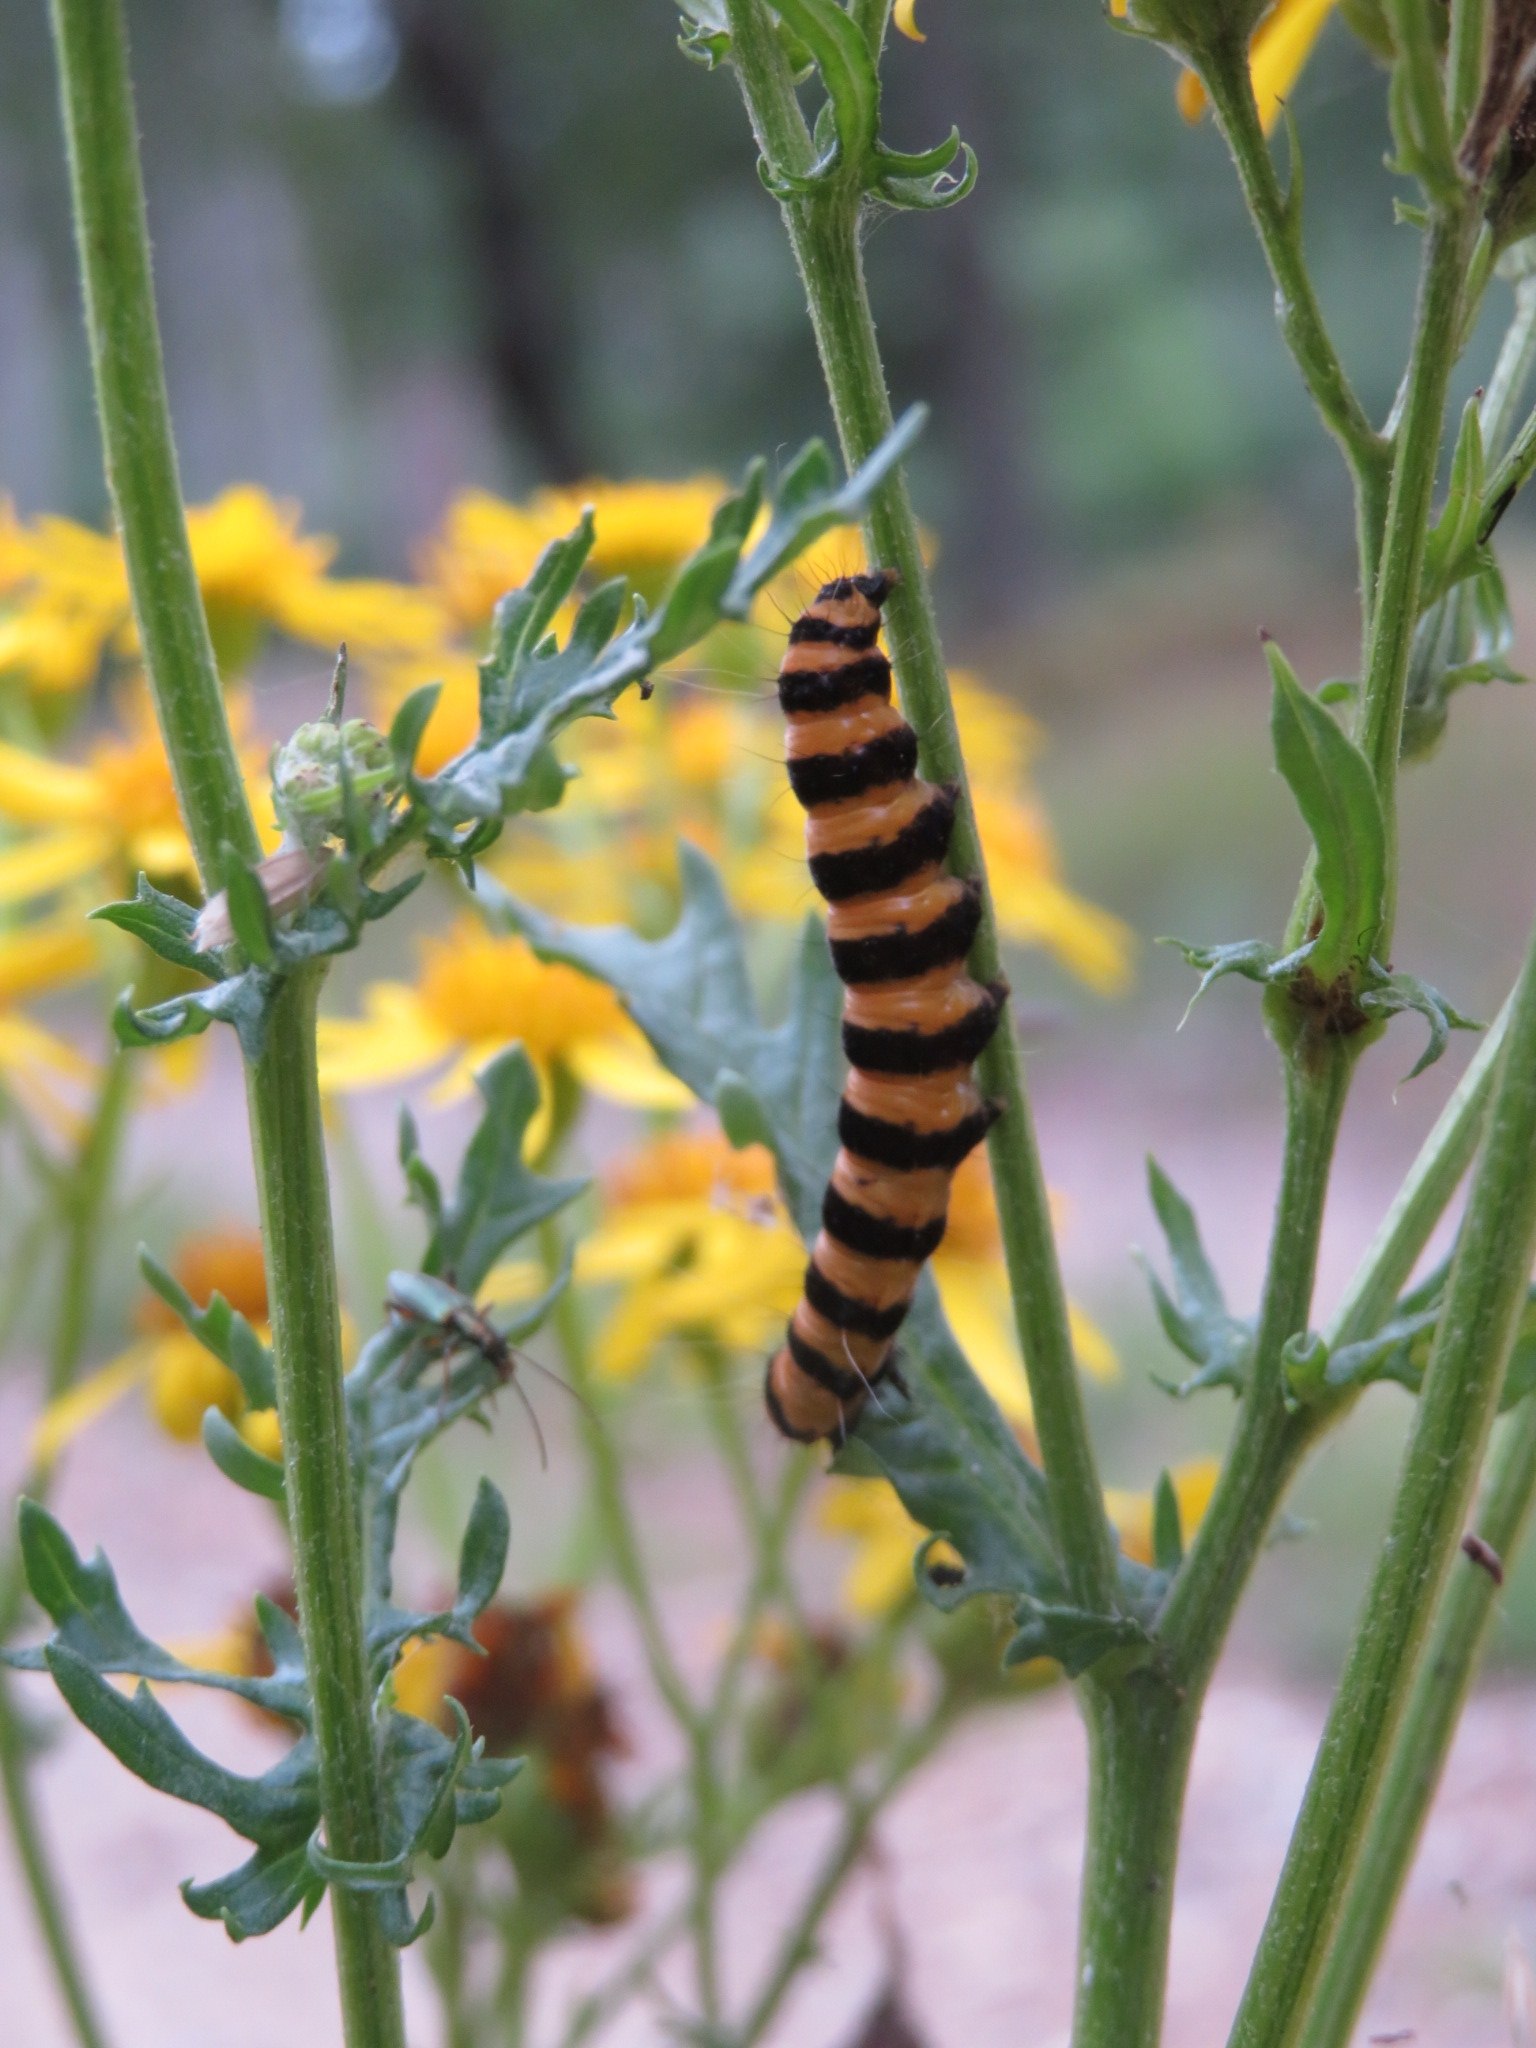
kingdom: Animalia
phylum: Arthropoda
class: Insecta
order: Lepidoptera
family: Erebidae
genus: Tyria
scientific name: Tyria jacobaeae
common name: Blodplet
